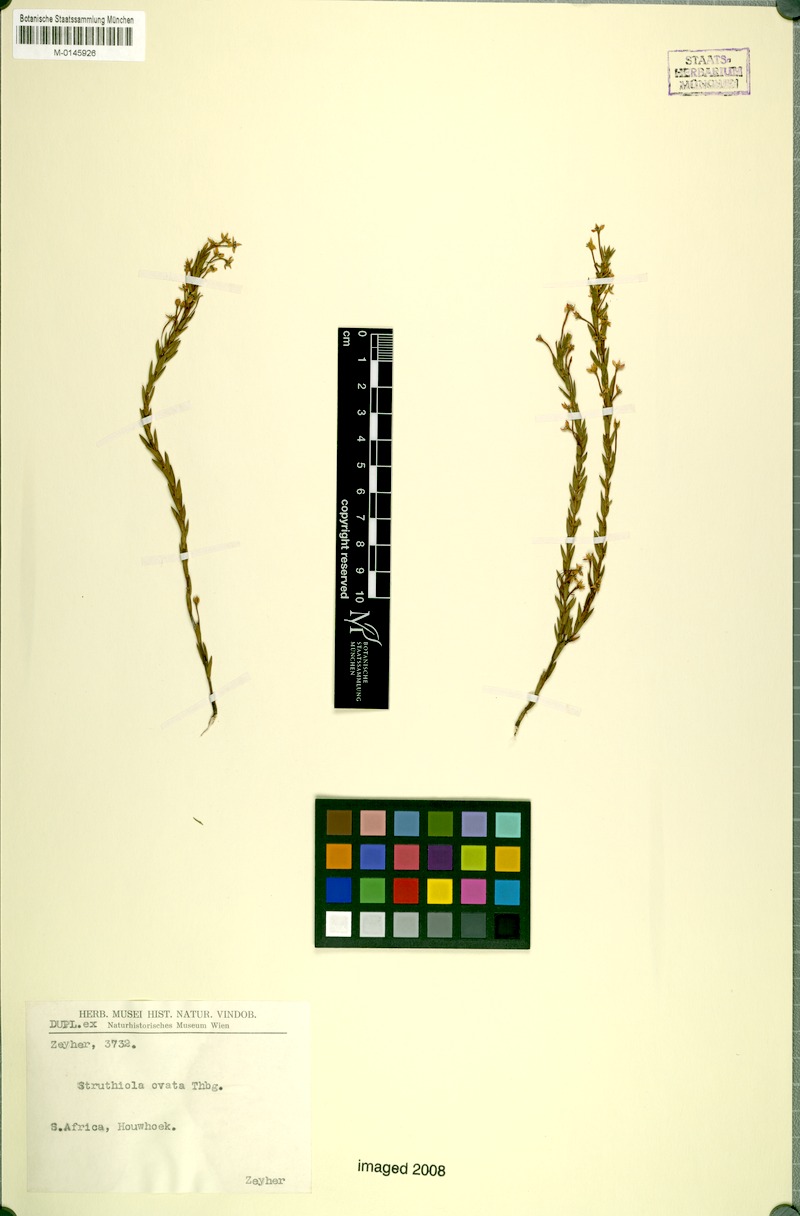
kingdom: Plantae
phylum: Tracheophyta
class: Magnoliopsida
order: Malvales
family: Thymelaeaceae
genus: Struthiola
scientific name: Struthiola myrsinites
